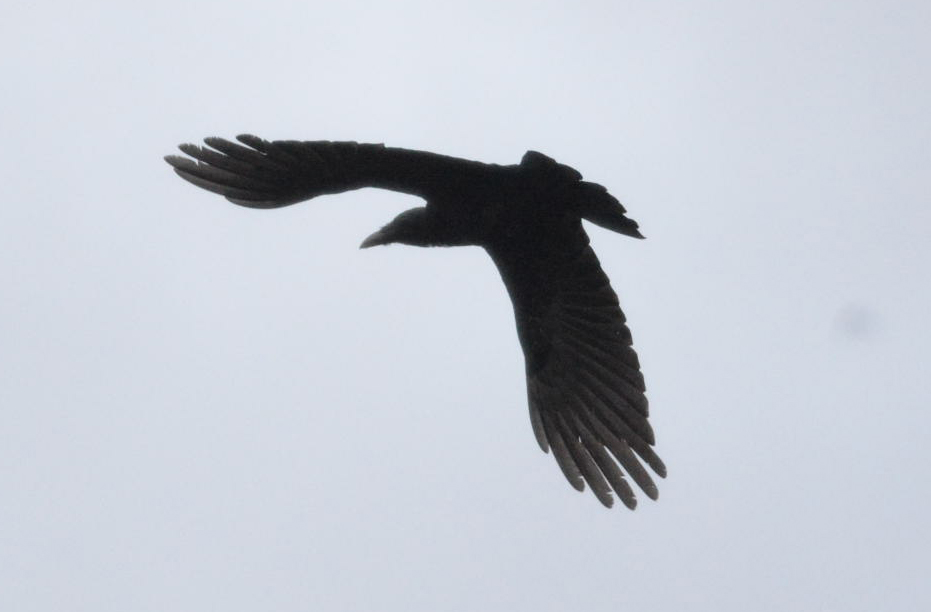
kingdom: Animalia
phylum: Chordata
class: Aves
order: Passeriformes
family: Corvidae
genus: Corvus
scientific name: Corvus corone
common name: Carrion crow
